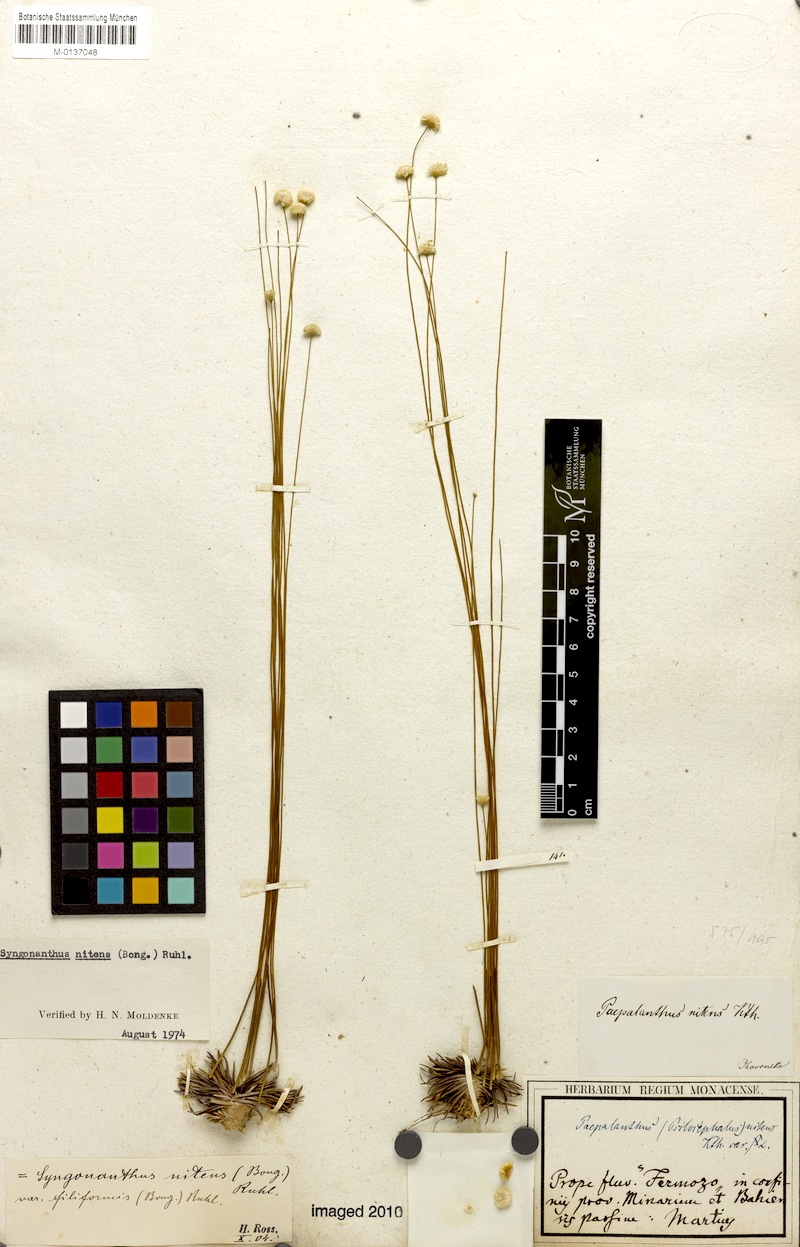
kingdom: Plantae
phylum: Tracheophyta
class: Liliopsida
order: Poales
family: Eriocaulaceae
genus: Syngonanthus
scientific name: Syngonanthus nitens
